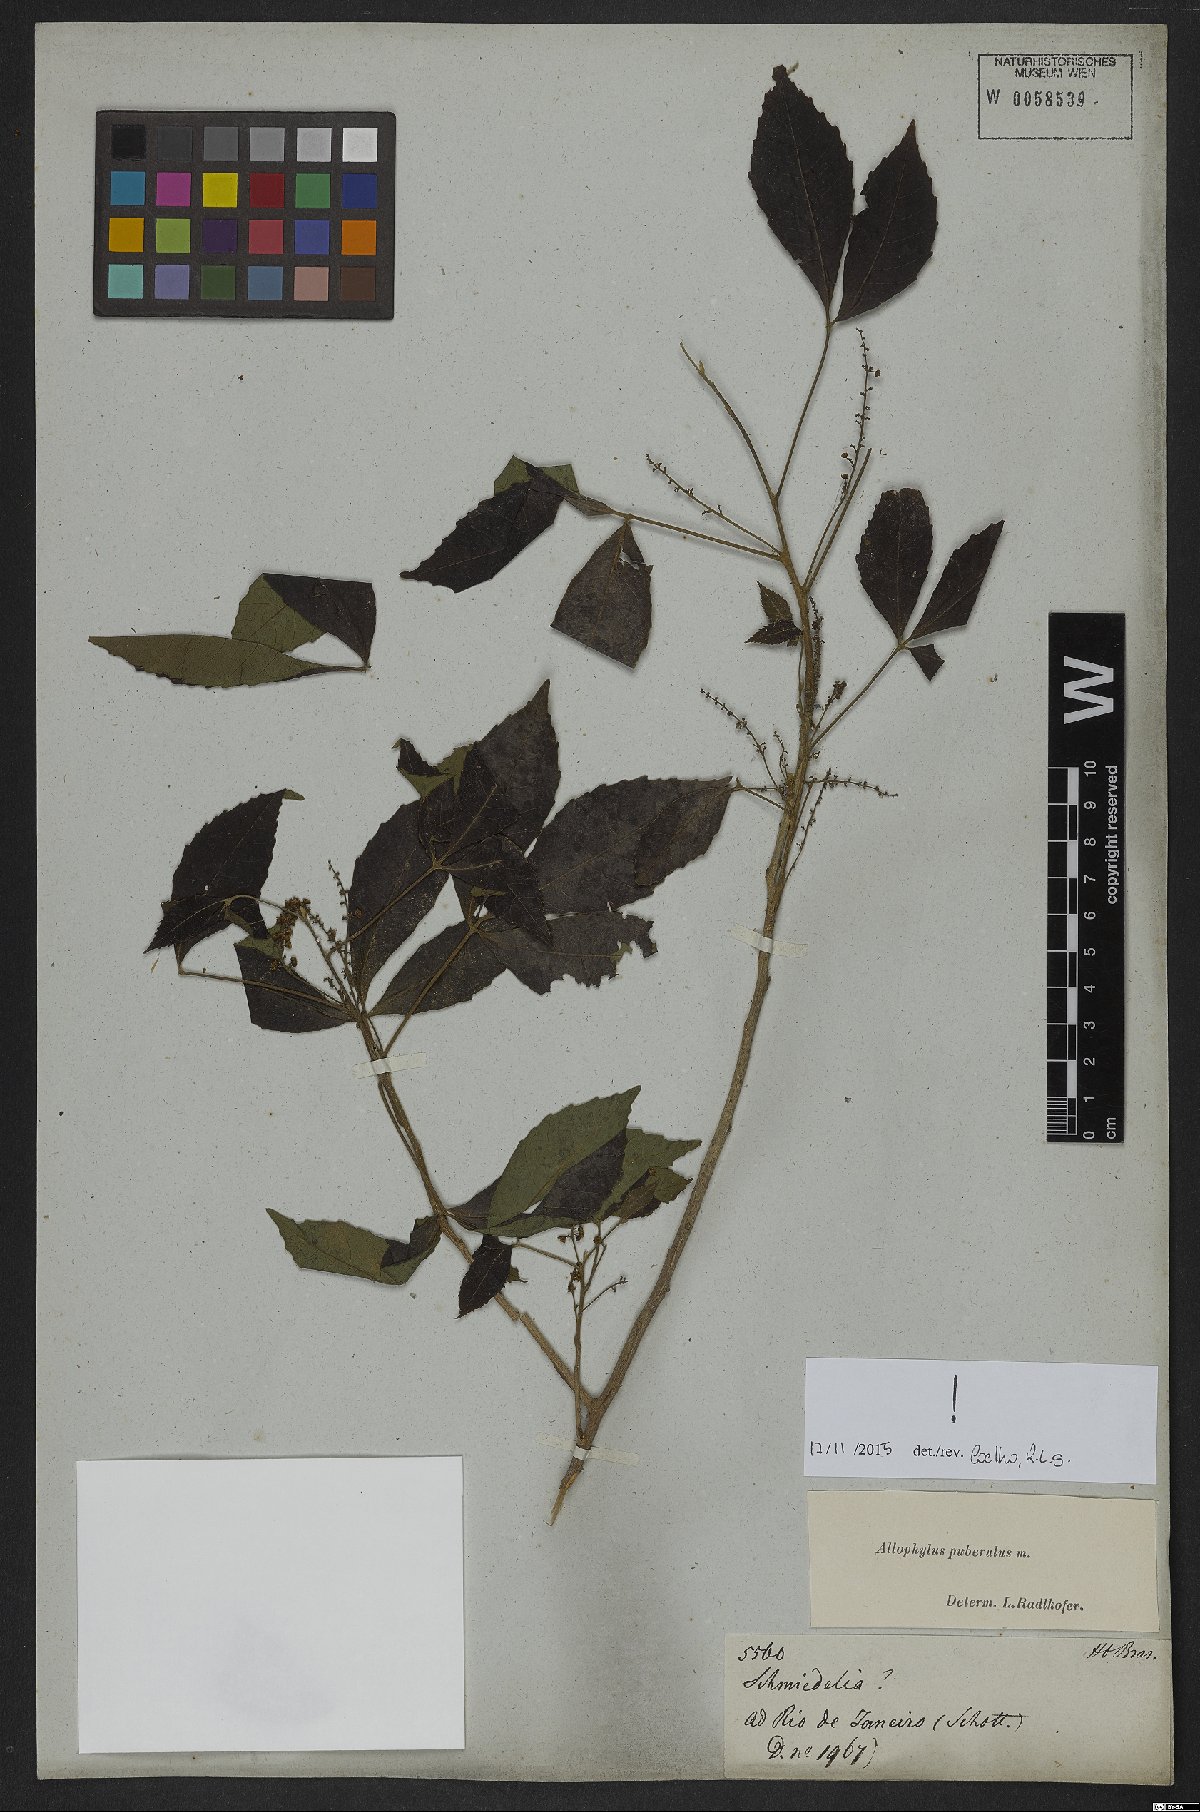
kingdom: Plantae
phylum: Tracheophyta
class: Magnoliopsida
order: Sapindales
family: Sapindaceae
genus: Allophylus
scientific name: Allophylus puberulus
